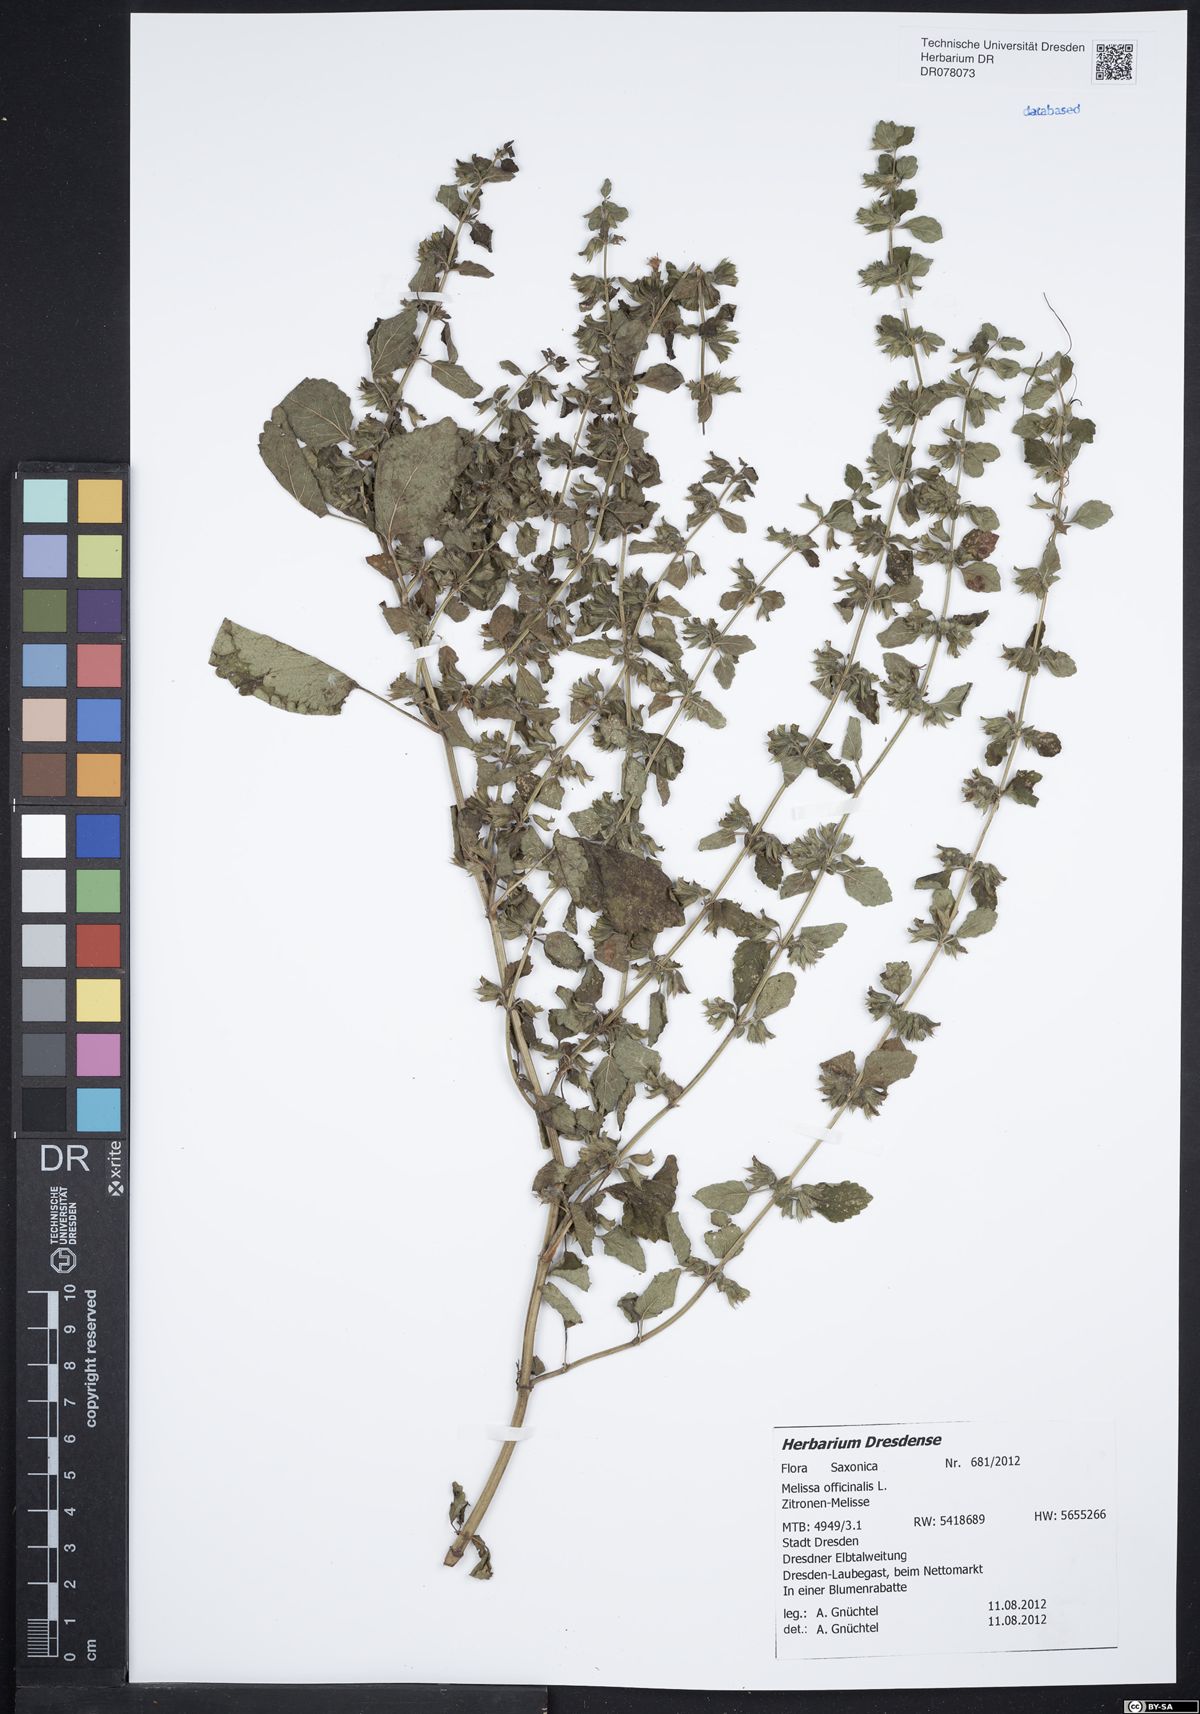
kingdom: Plantae
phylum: Tracheophyta
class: Magnoliopsida
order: Lamiales
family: Lamiaceae
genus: Melissa
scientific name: Melissa officinalis
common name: Balm
